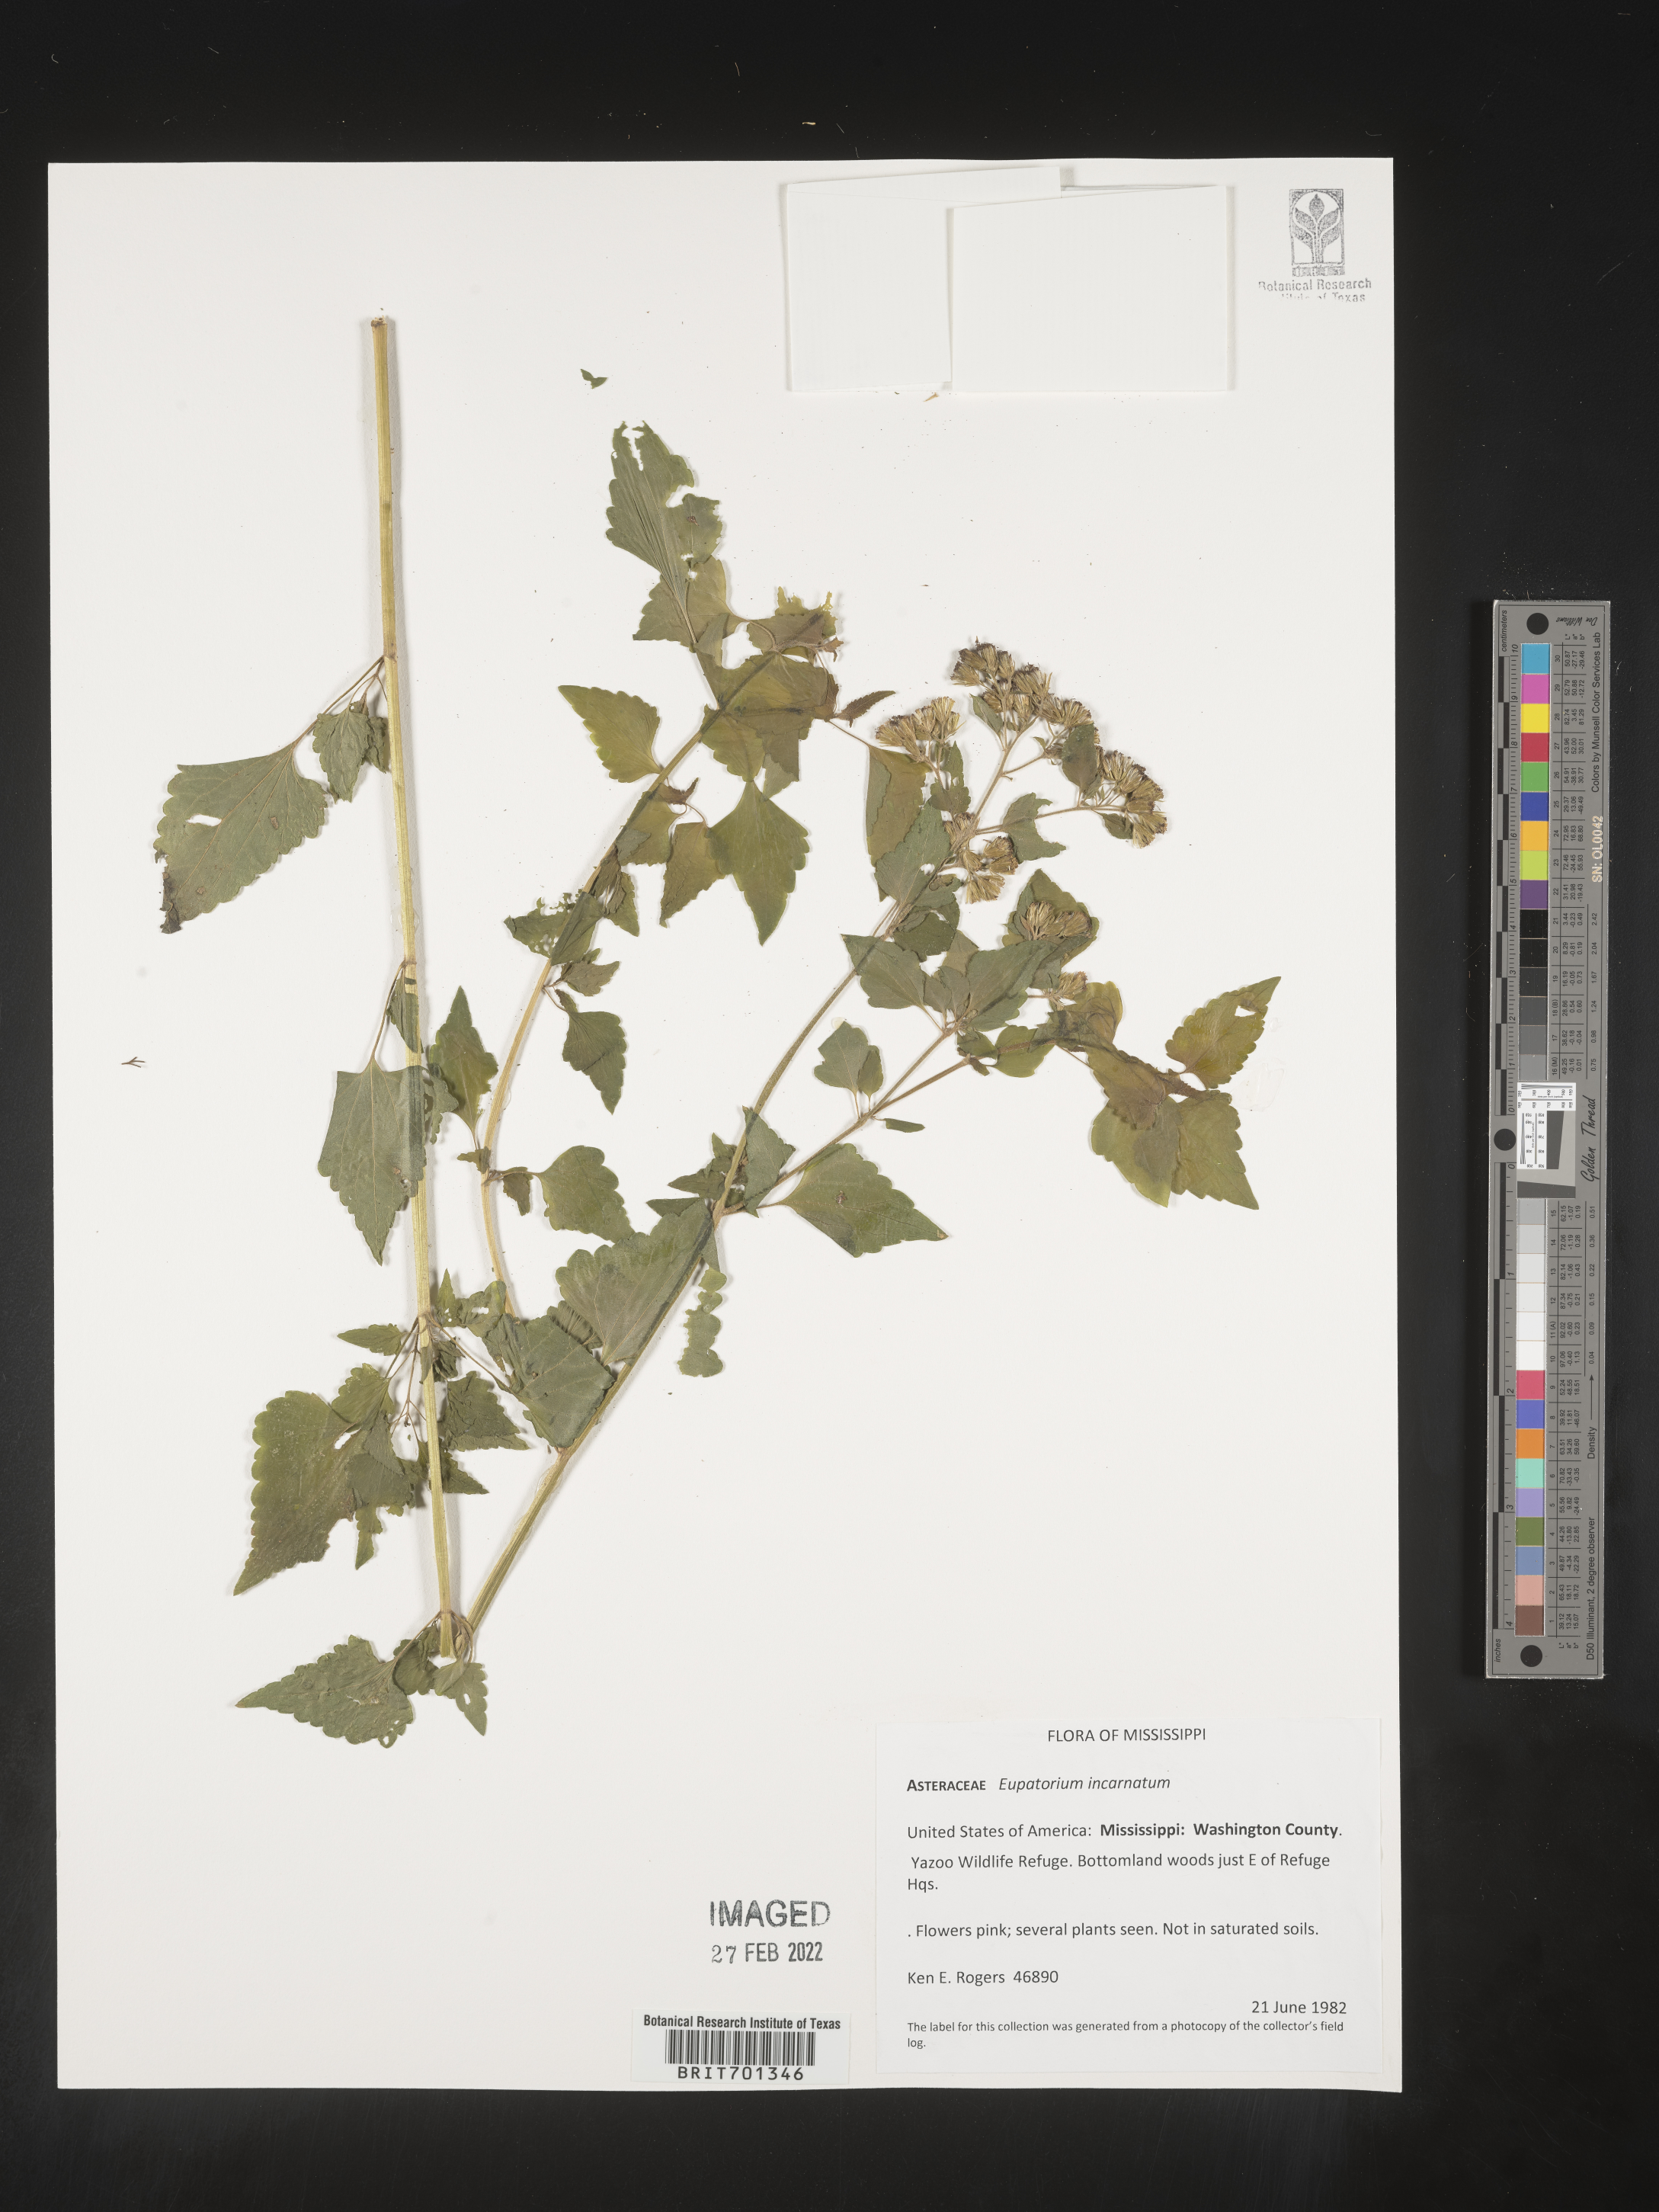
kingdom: Plantae
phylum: Tracheophyta
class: Magnoliopsida
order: Asterales
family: Asteraceae
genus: Fleischmannia
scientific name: Fleischmannia incarnata
